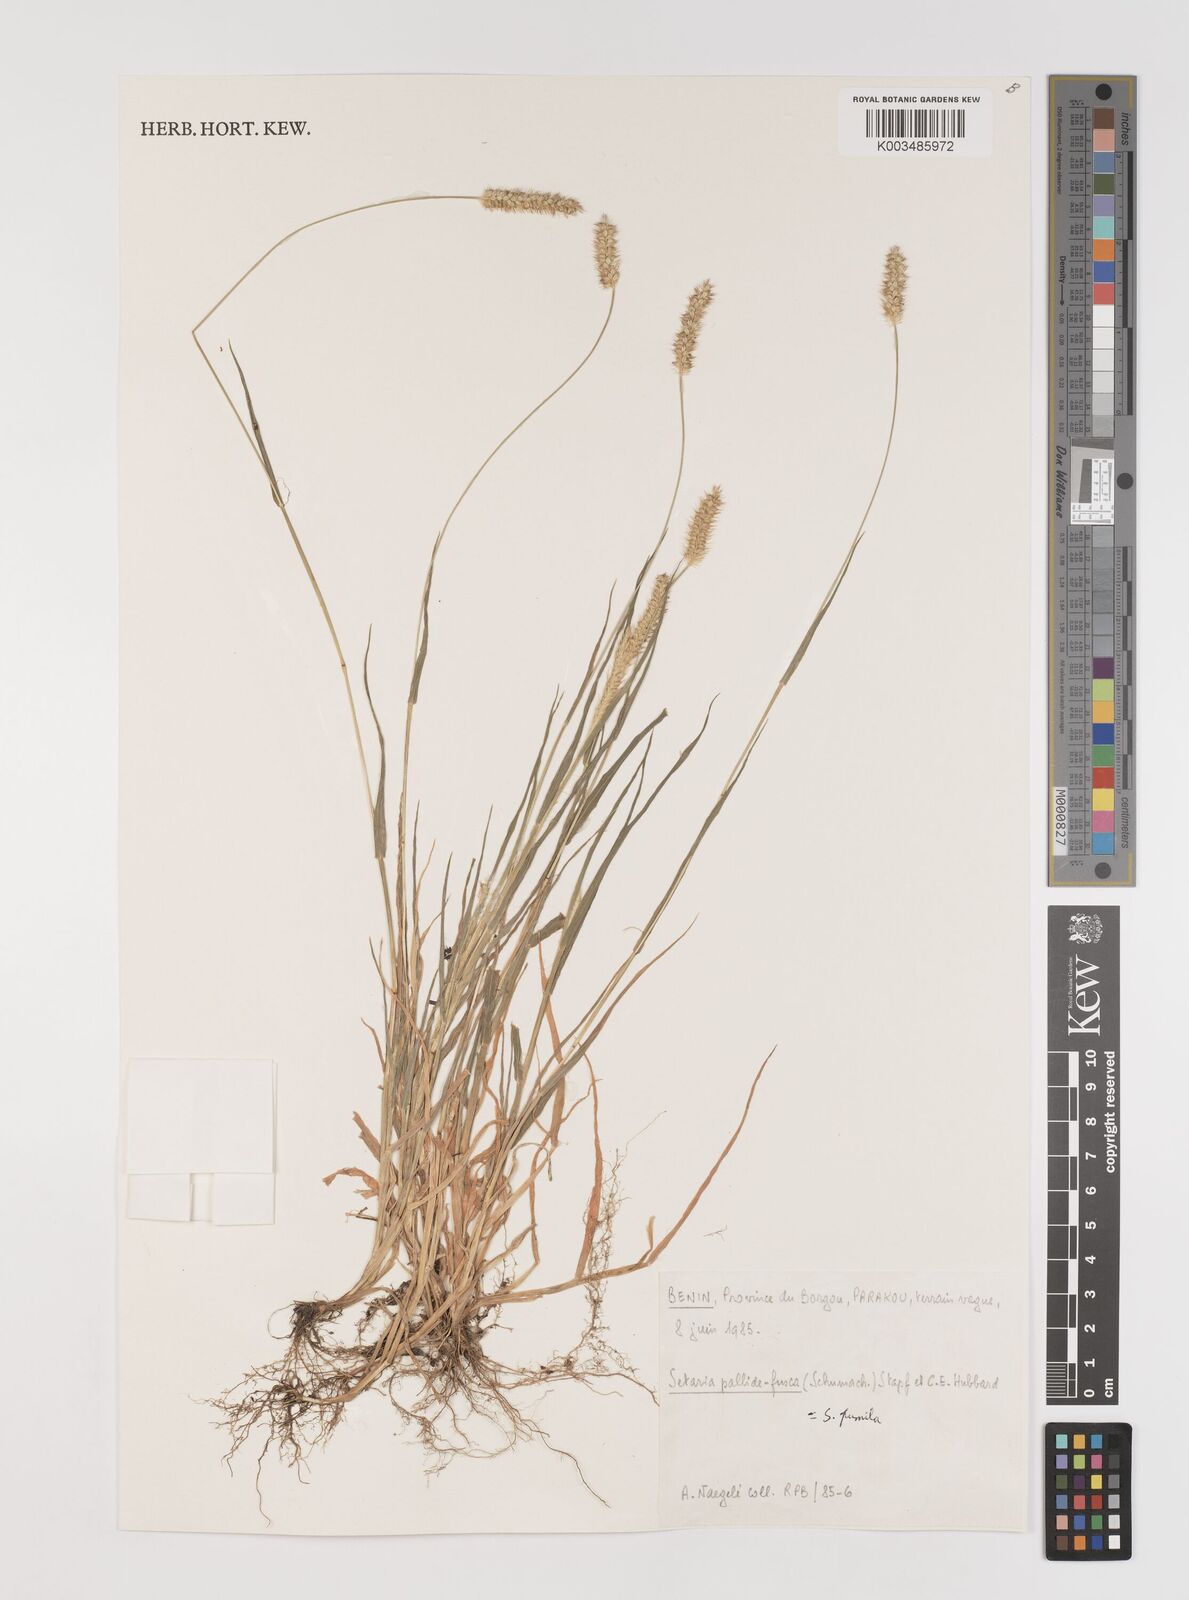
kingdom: Plantae
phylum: Tracheophyta
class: Liliopsida
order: Poales
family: Poaceae
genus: Setaria
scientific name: Setaria pumila
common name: Yellow bristle-grass
